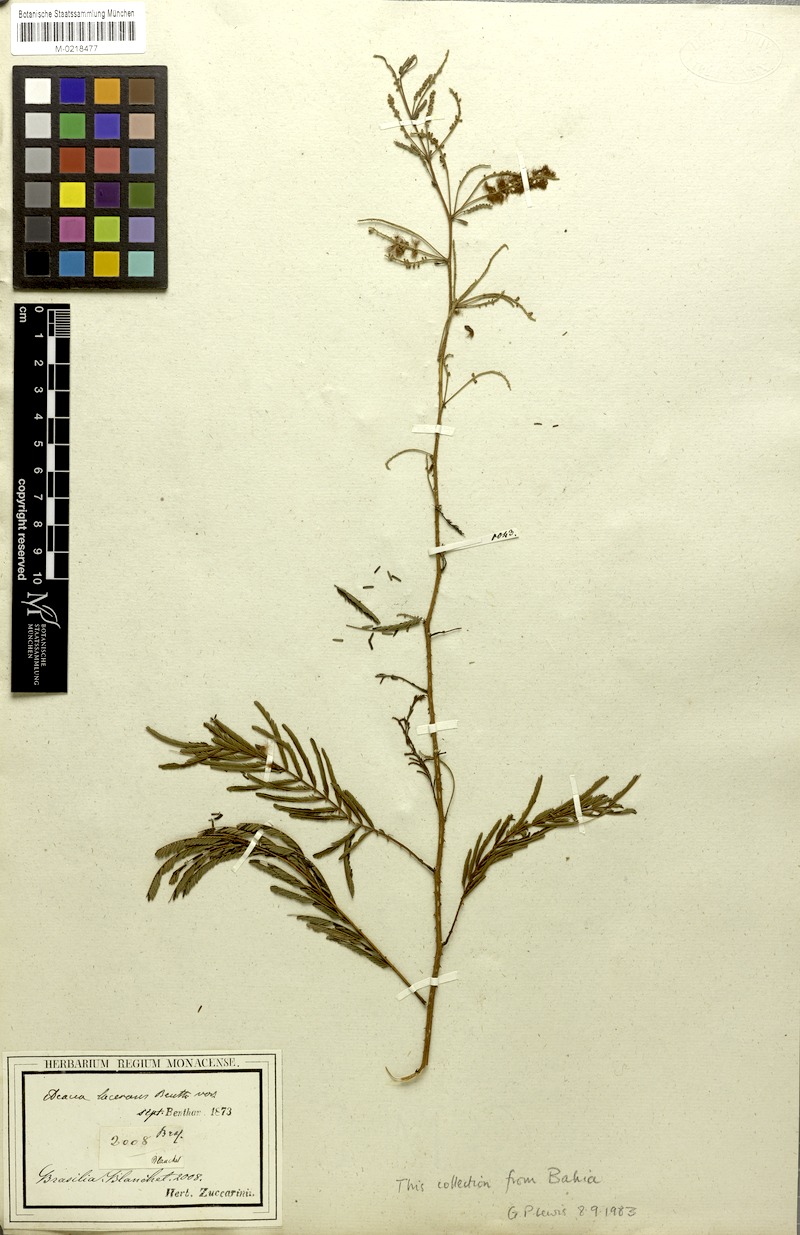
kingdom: Plantae
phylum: Tracheophyta
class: Magnoliopsida
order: Fabales
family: Fabaceae
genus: Senegalia
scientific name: Senegalia lacerans
